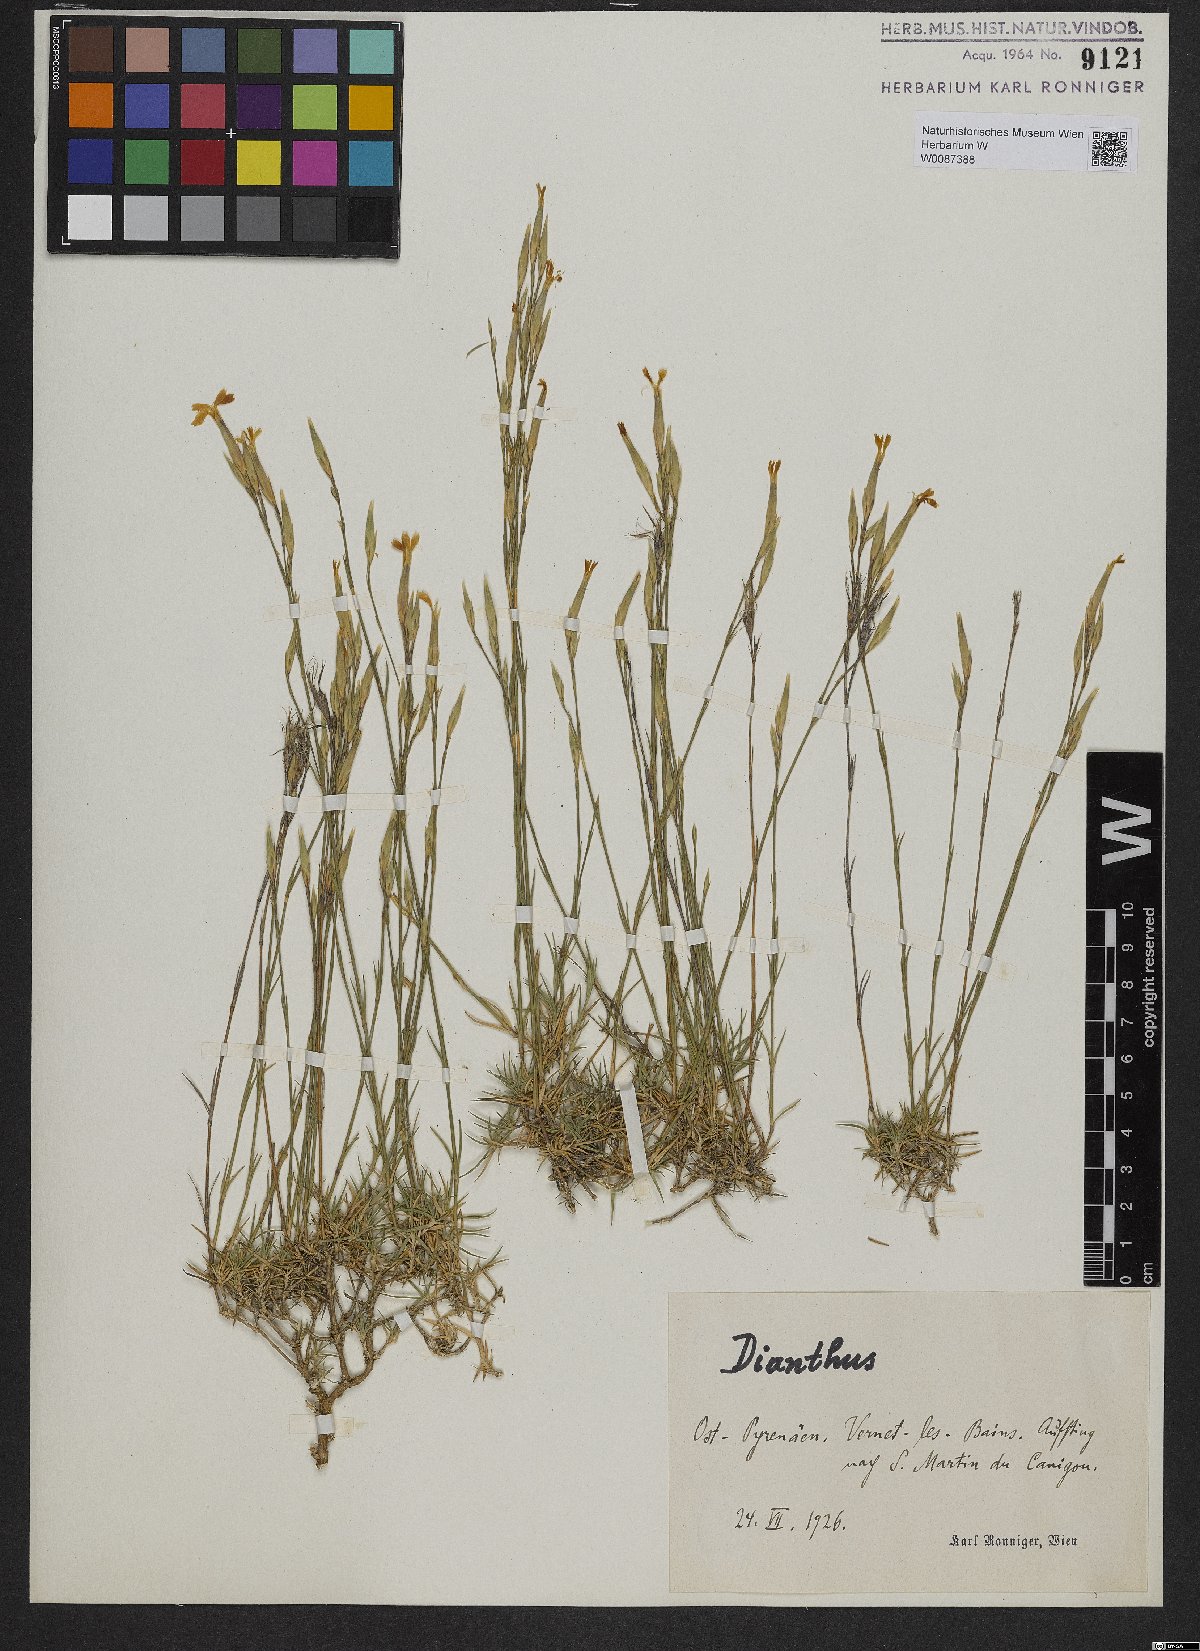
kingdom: Plantae
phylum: Tracheophyta
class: Magnoliopsida
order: Caryophyllales
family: Caryophyllaceae
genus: Dianthus
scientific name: Dianthus
